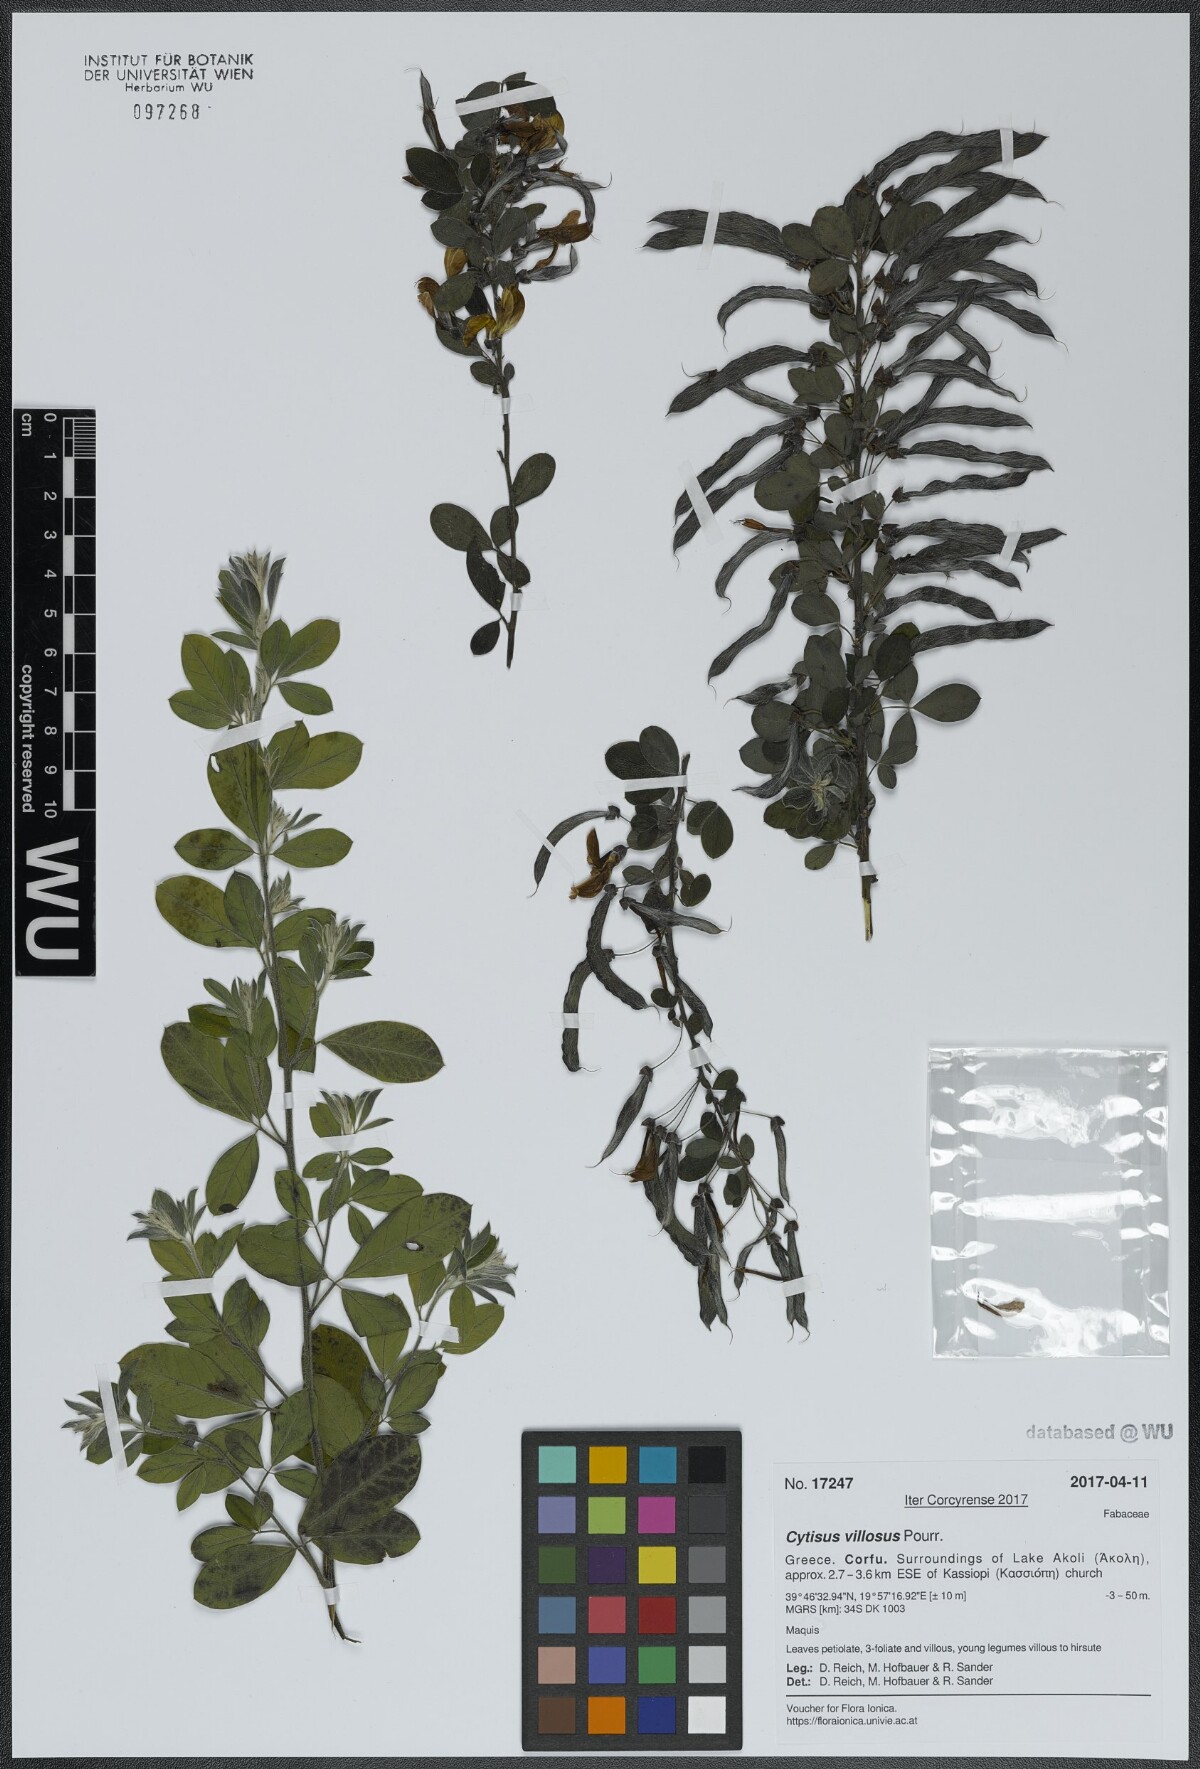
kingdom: Plantae
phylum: Tracheophyta
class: Magnoliopsida
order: Fabales
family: Fabaceae
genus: Cytisus
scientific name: Cytisus villosus
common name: Hairybroom
